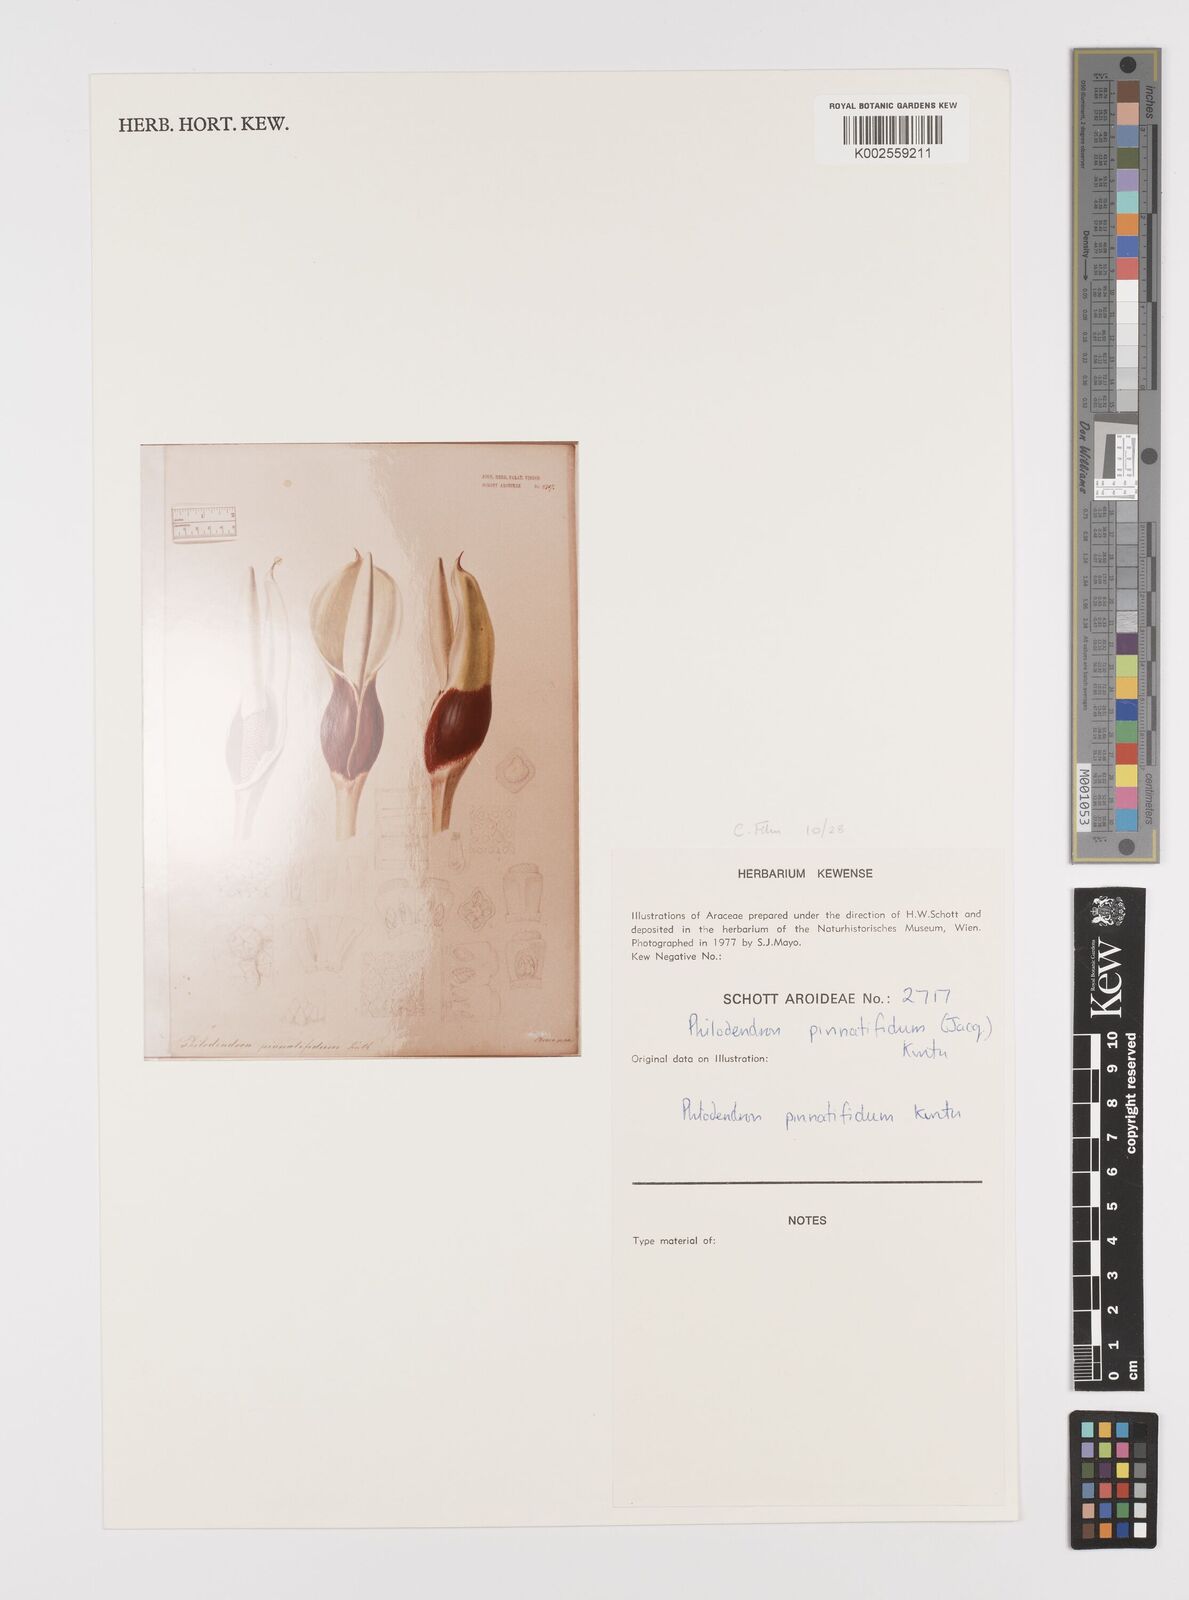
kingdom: Plantae
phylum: Tracheophyta
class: Liliopsida
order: Alismatales
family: Araceae
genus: Philodendron
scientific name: Philodendron pinnatifidum
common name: Comb-leaf philodendron
